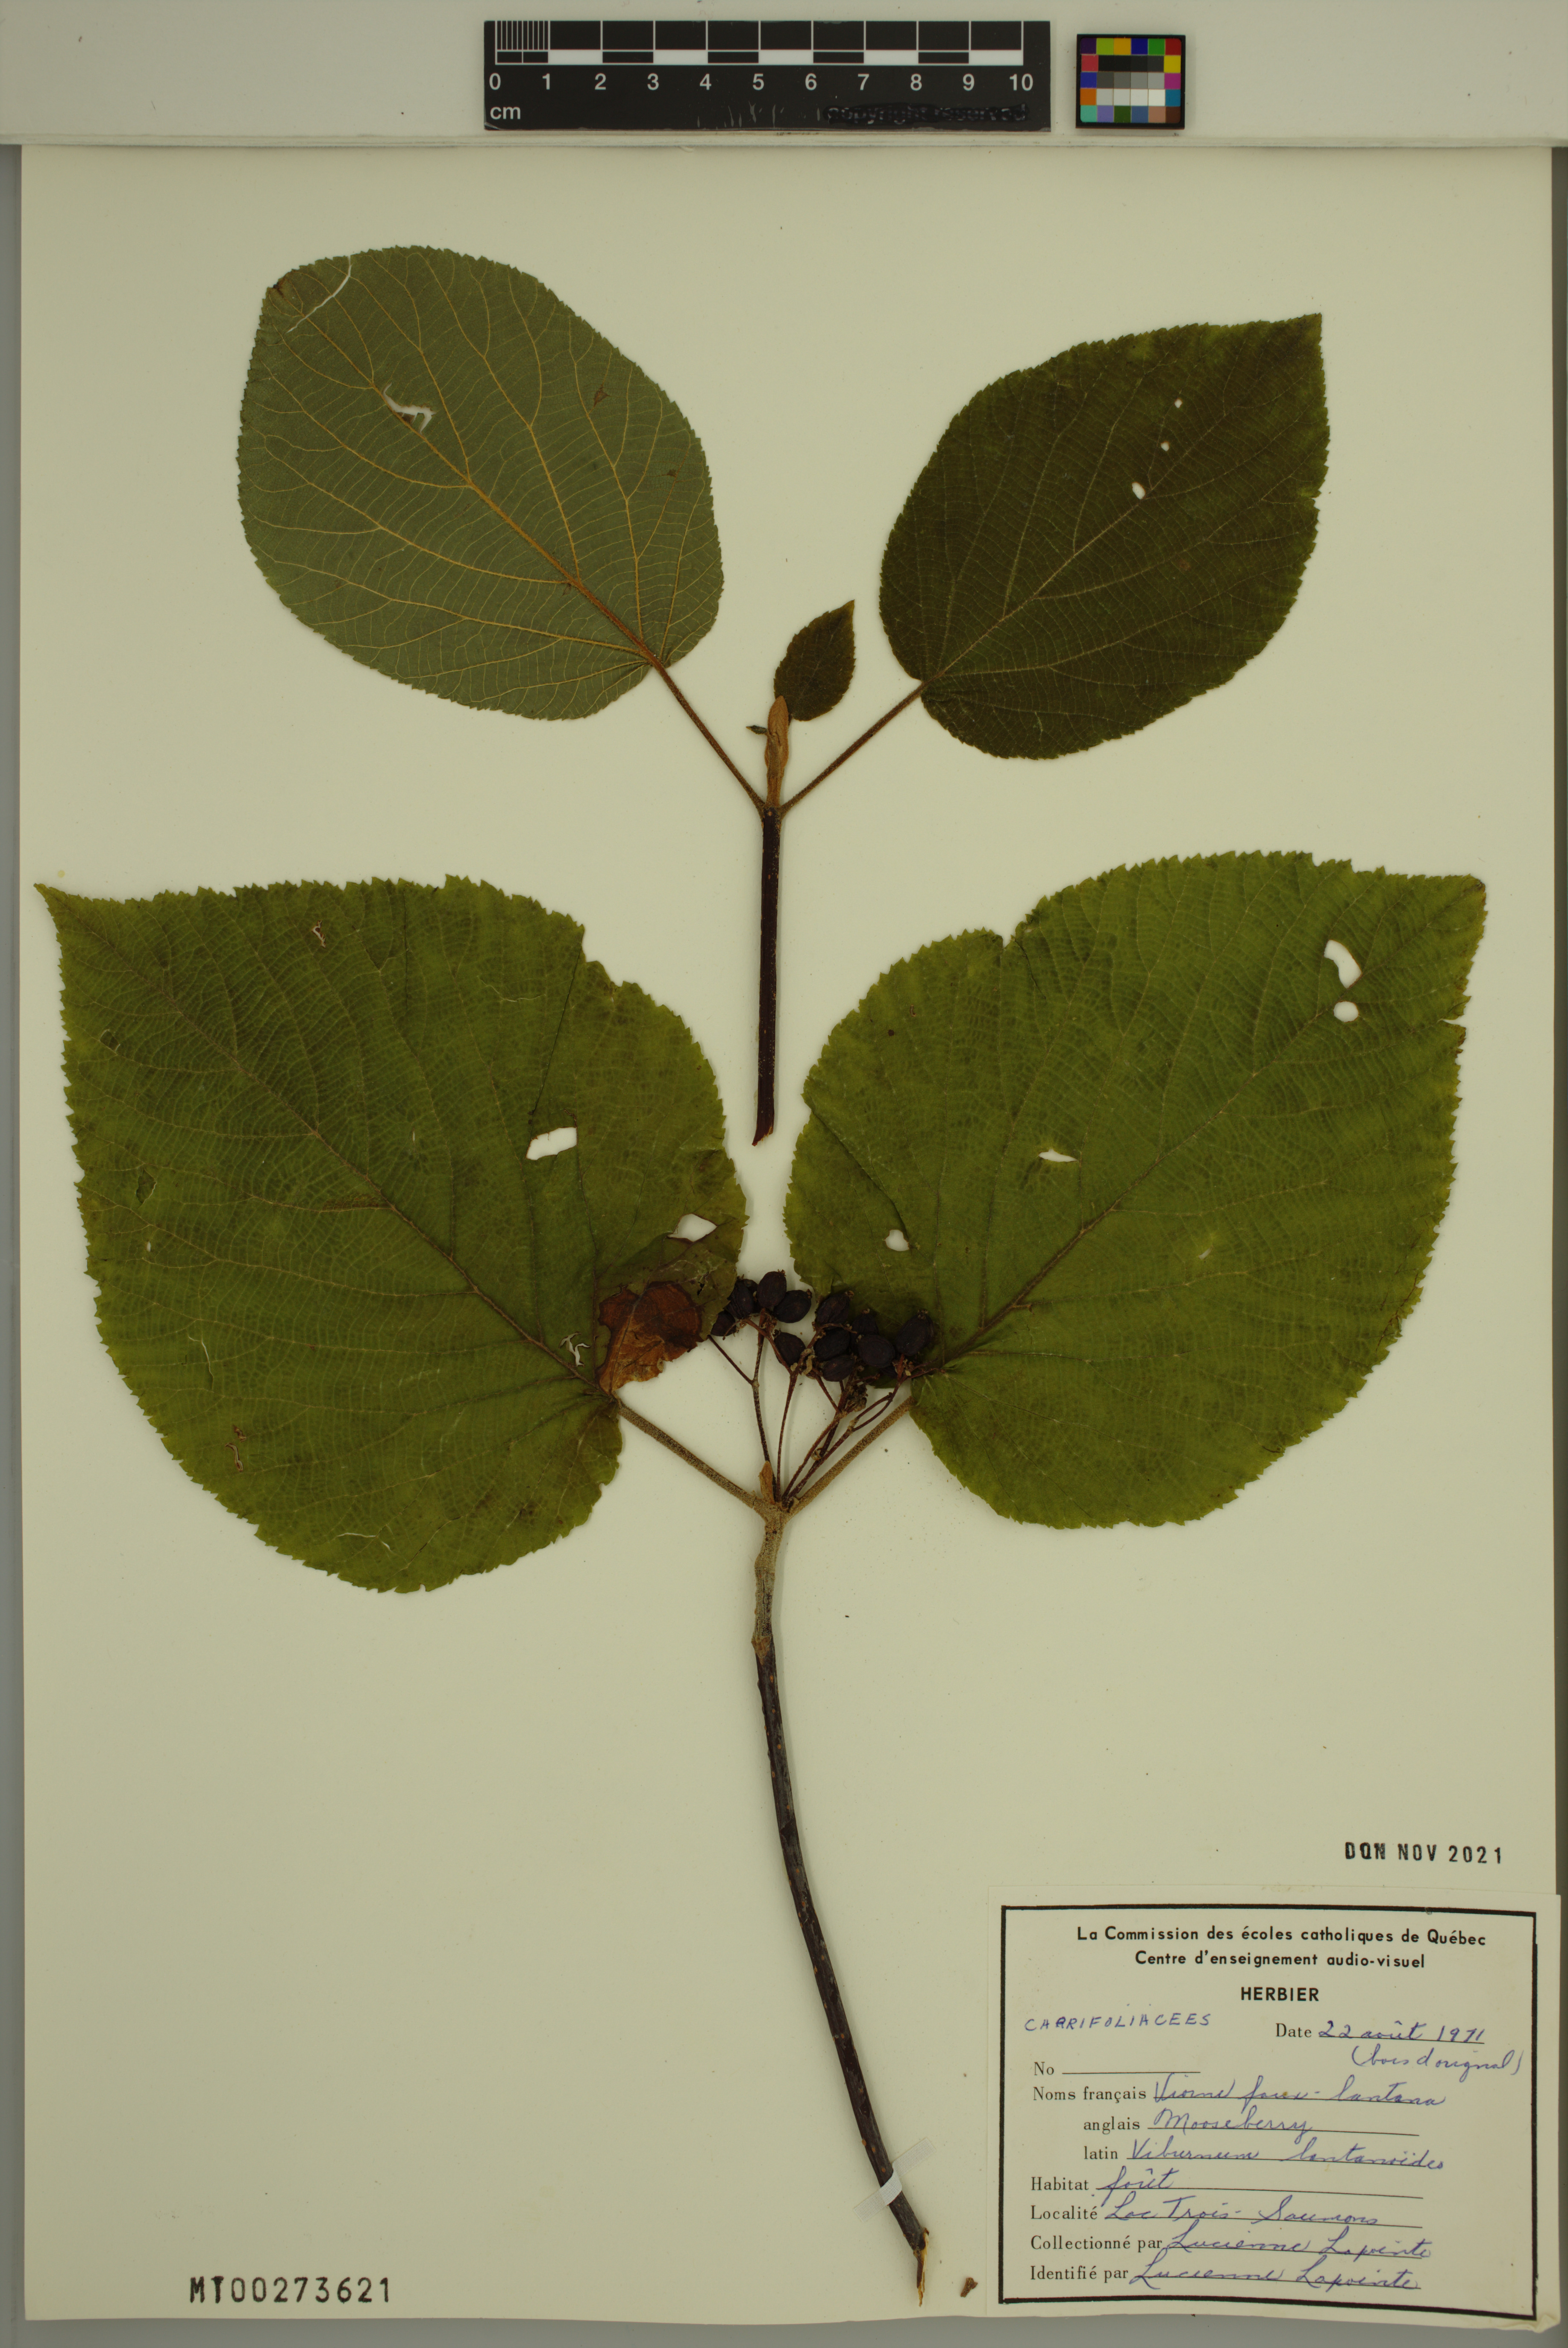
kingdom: Plantae
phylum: Tracheophyta
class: Magnoliopsida
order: Dipsacales
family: Viburnaceae
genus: Viburnum
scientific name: Viburnum lantanoides
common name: Hobblebush
